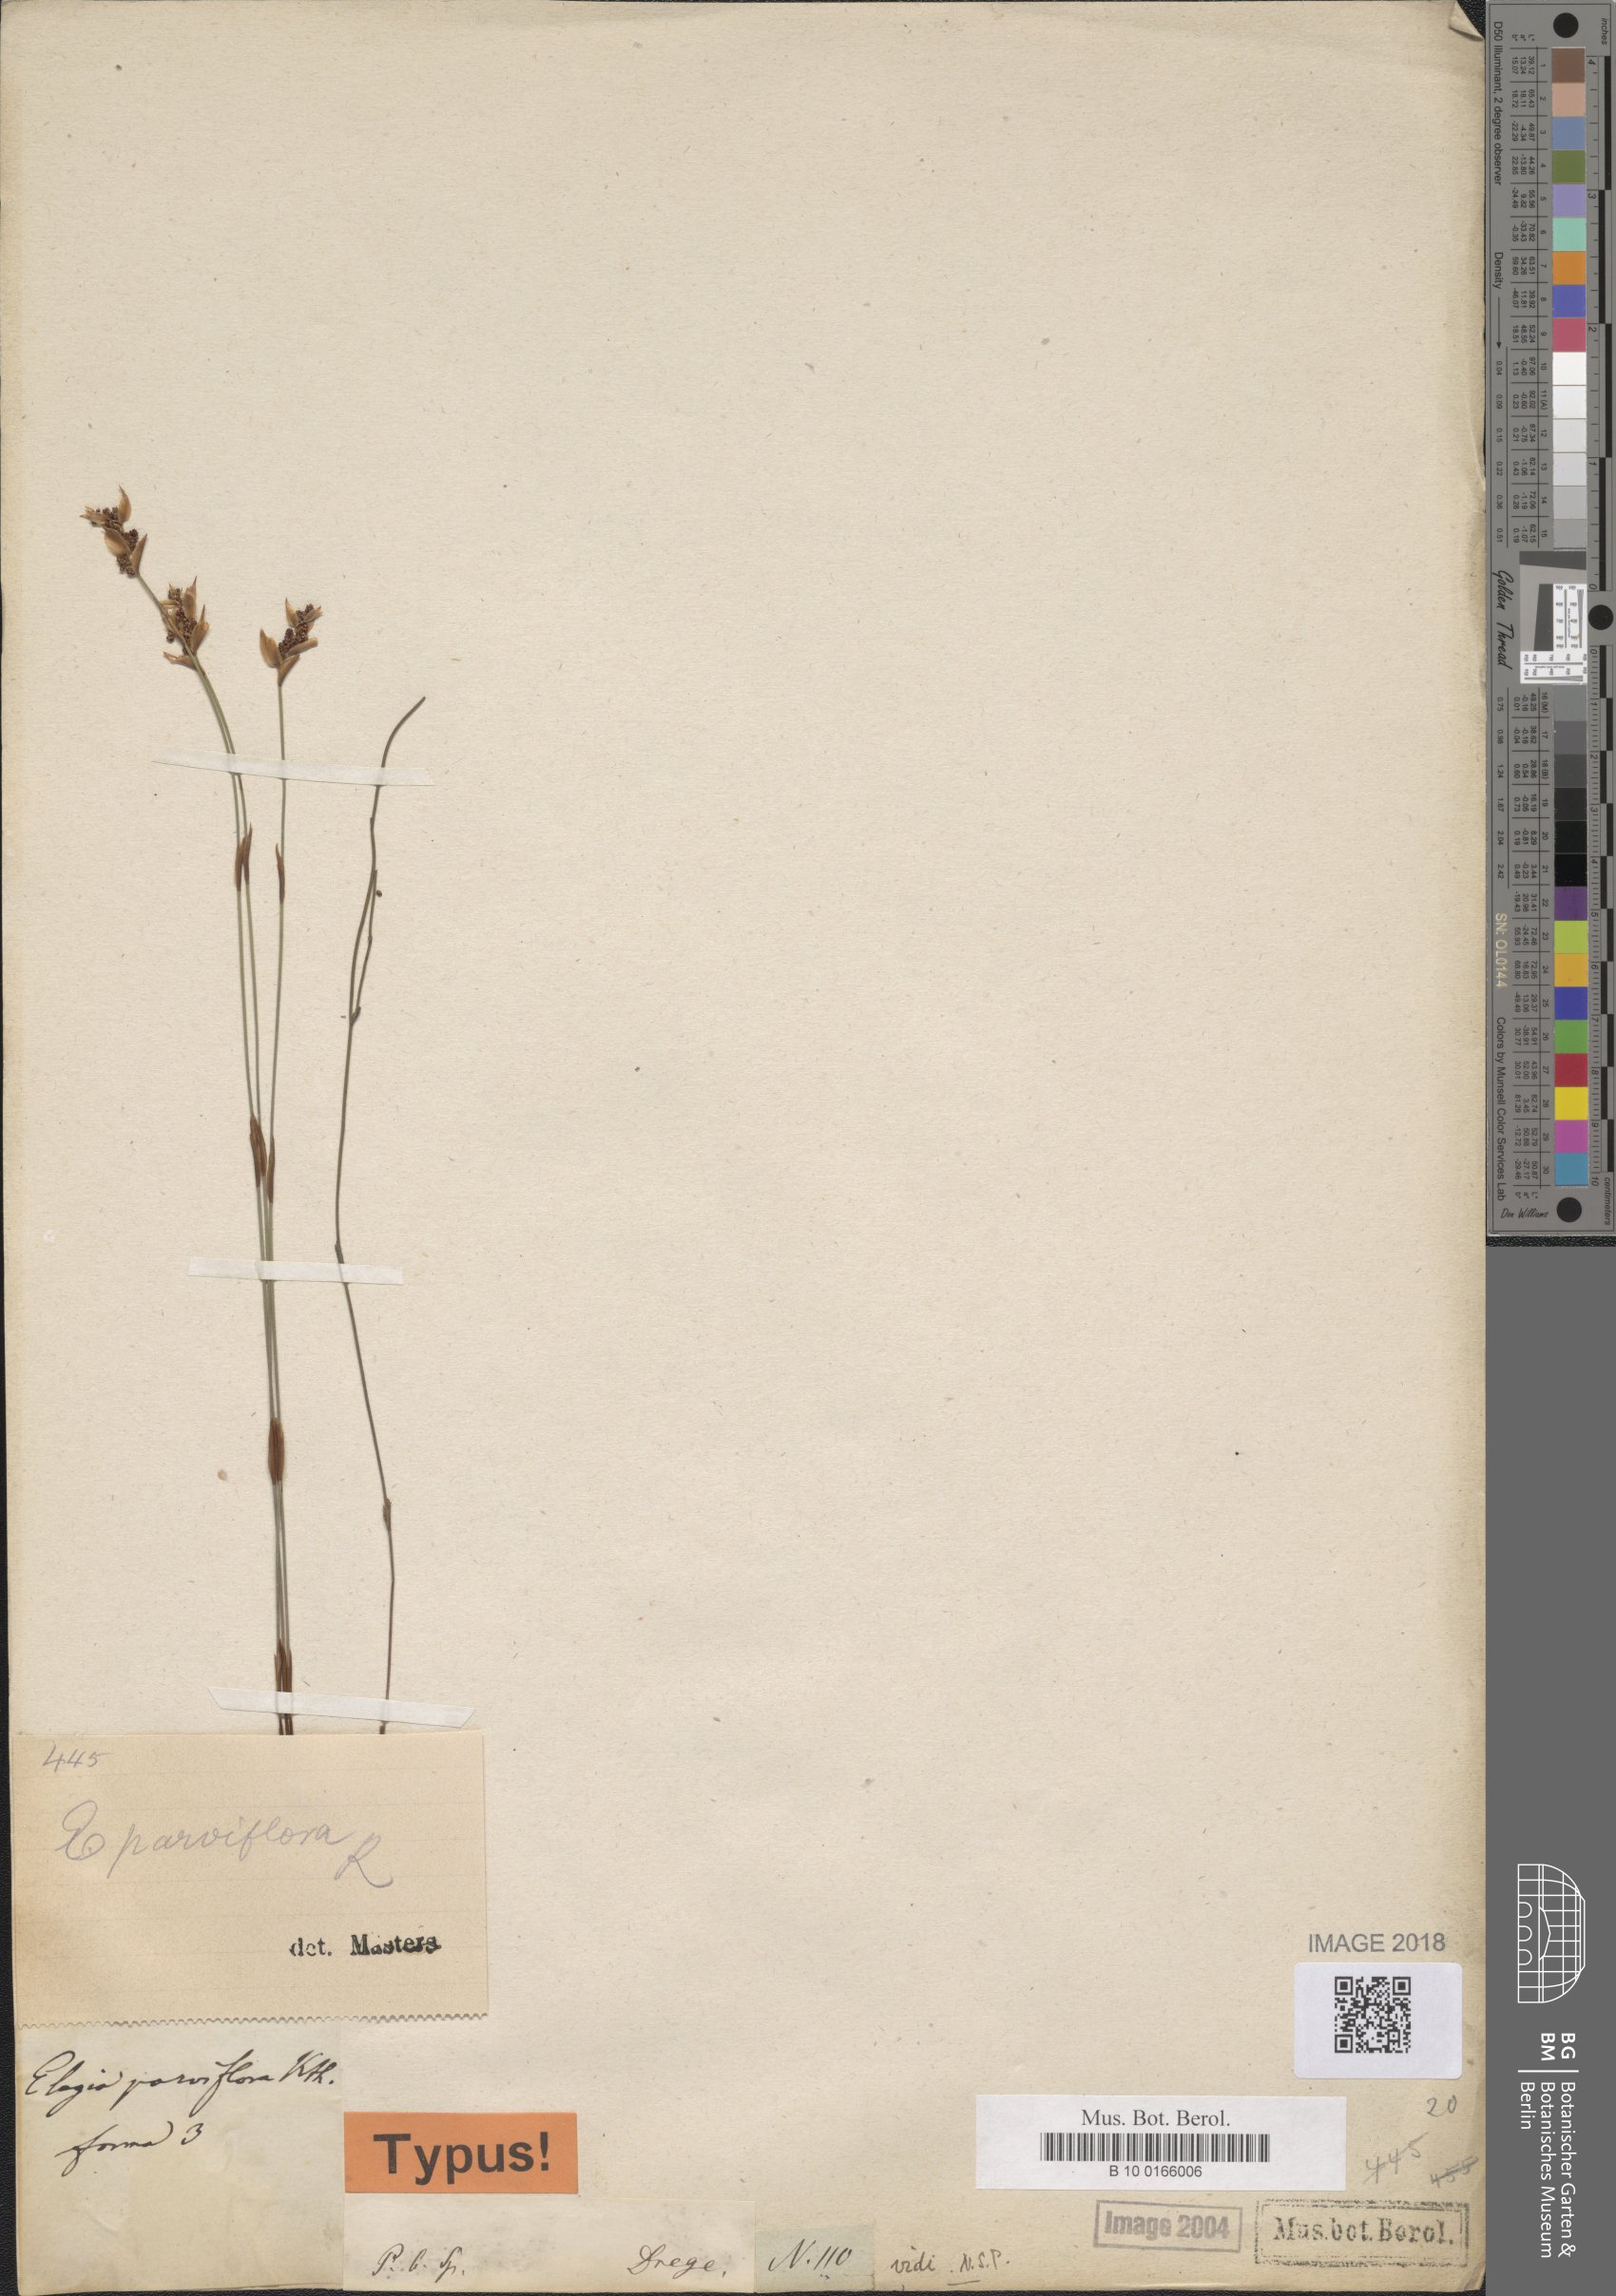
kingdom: Plantae
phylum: Tracheophyta
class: Liliopsida
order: Poales
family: Restionaceae
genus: Cannomois
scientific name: Cannomois parviflora
